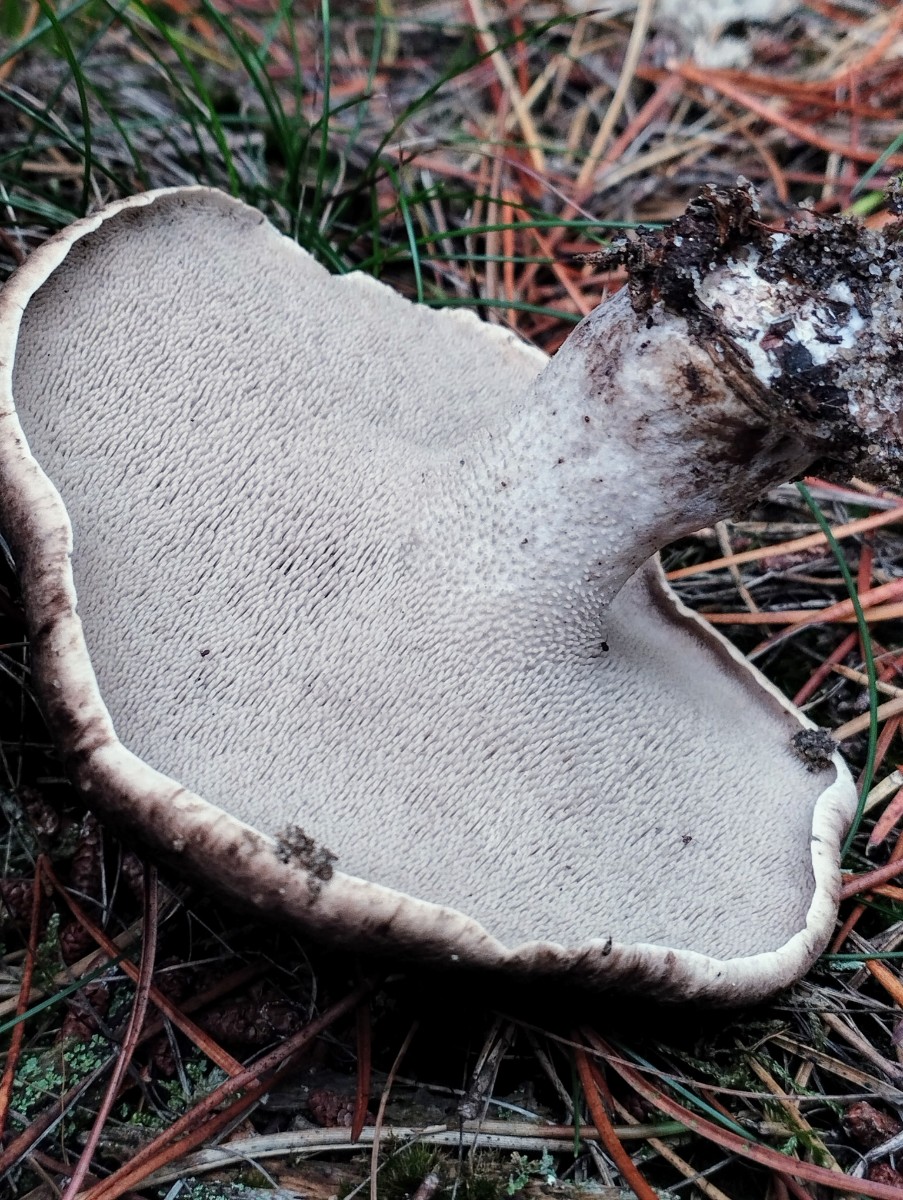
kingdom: Fungi
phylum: Basidiomycota
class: Agaricomycetes
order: Thelephorales
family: Bankeraceae
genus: Sarcodon
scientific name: Sarcodon squamosus
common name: småskællet kødpigsvamp
